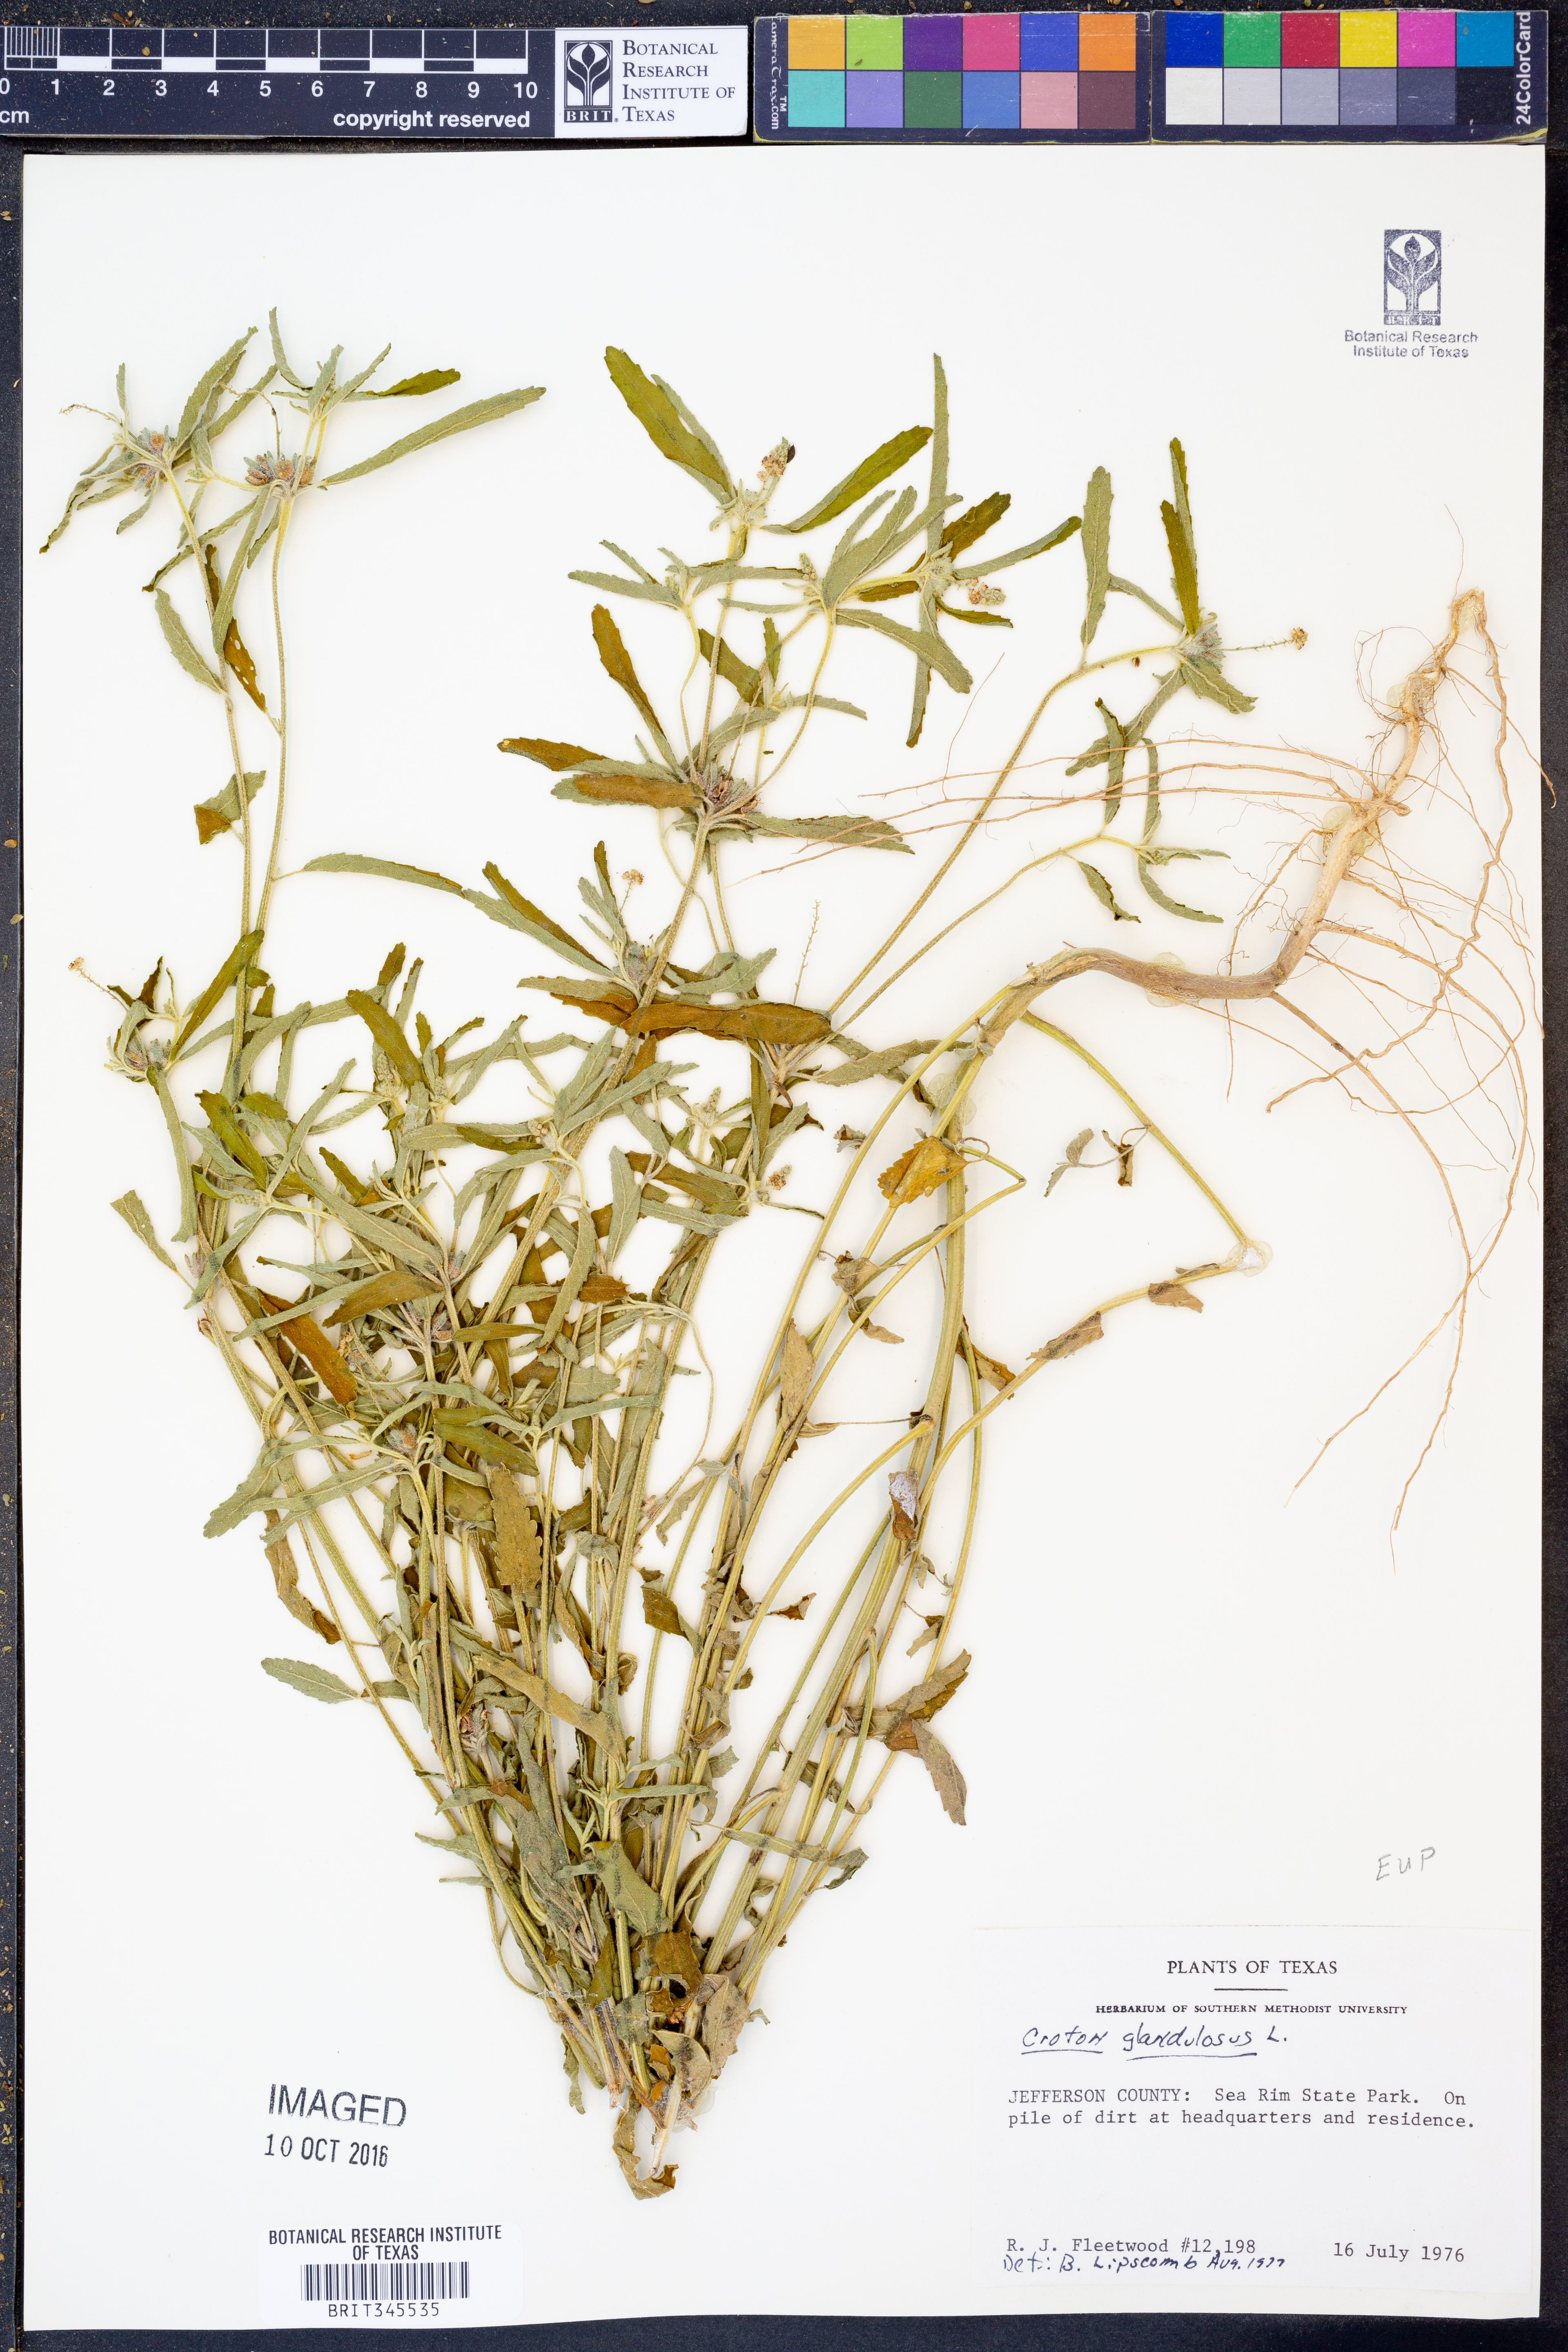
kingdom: Plantae
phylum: Tracheophyta
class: Magnoliopsida
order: Malpighiales
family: Euphorbiaceae
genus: Croton
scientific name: Croton glandulosus
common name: Tropic croton
